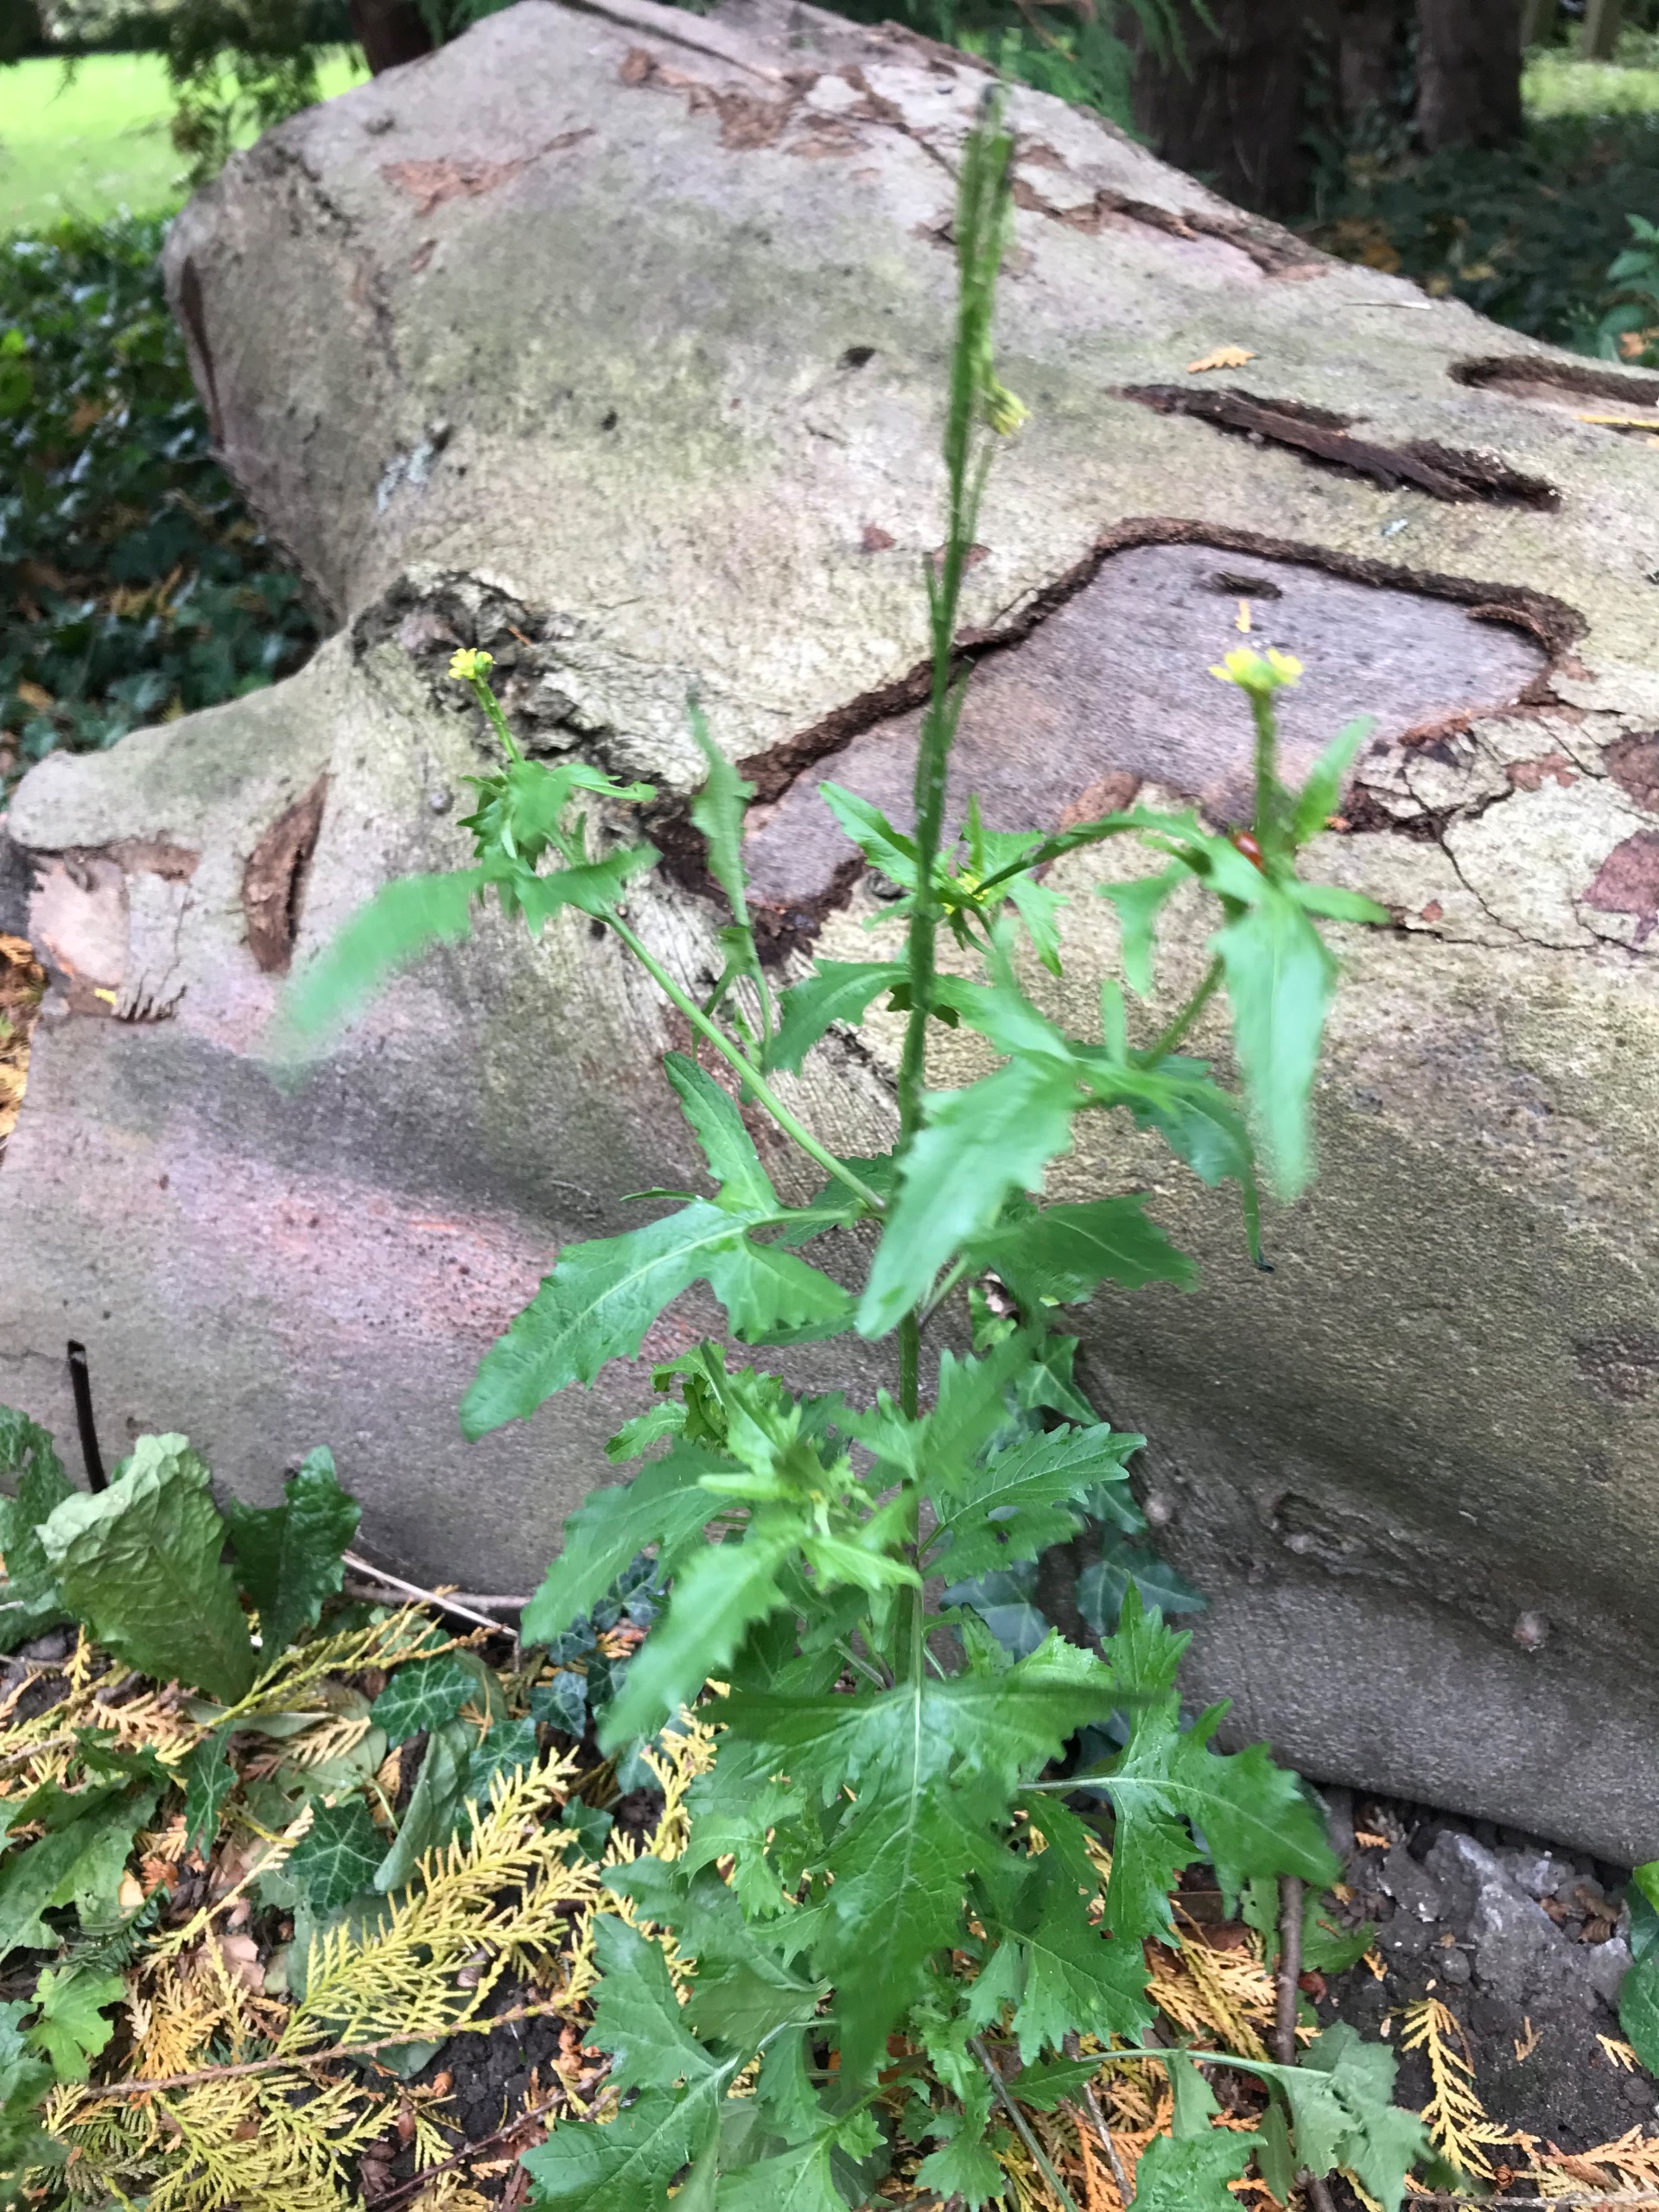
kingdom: Plantae
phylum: Tracheophyta
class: Magnoliopsida
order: Brassicales
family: Brassicaceae
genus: Sisymbrium
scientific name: Sisymbrium officinale
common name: Rank vejsennep
